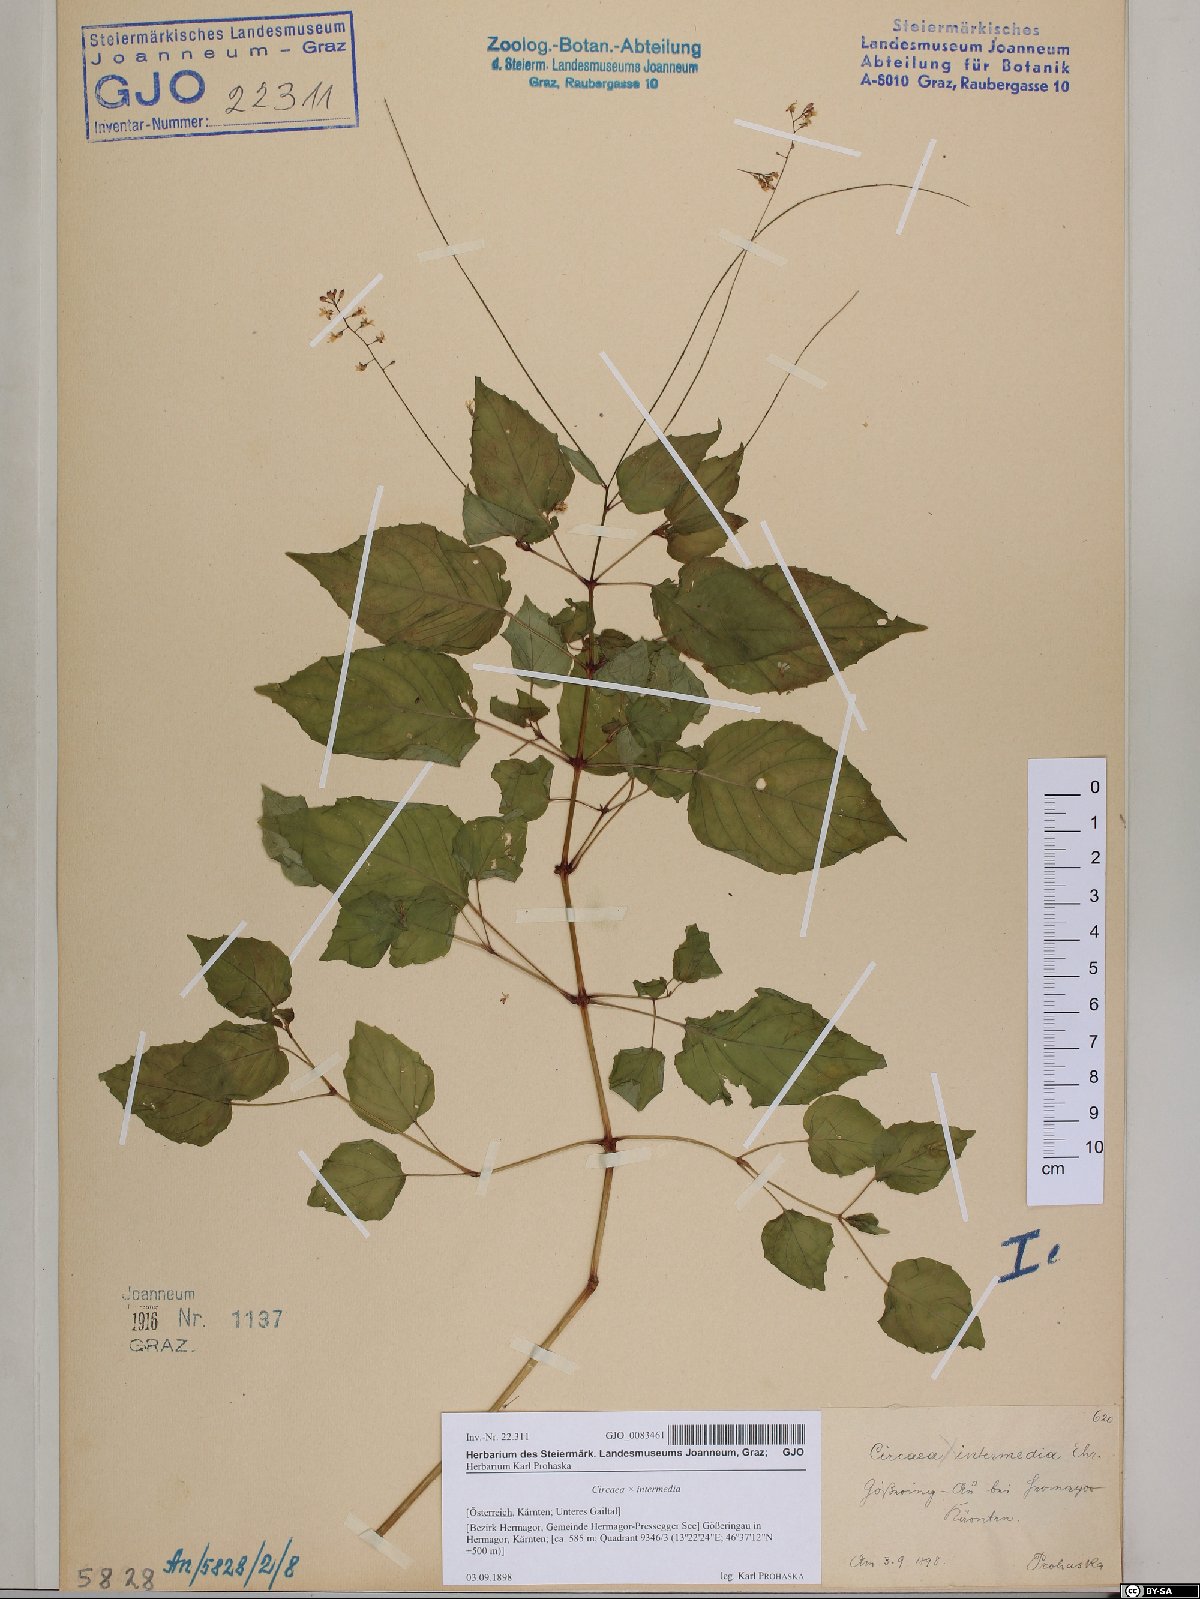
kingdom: Plantae
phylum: Tracheophyta
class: Magnoliopsida
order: Myrtales
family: Onagraceae
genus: Circaea
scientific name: Circaea intermedia
